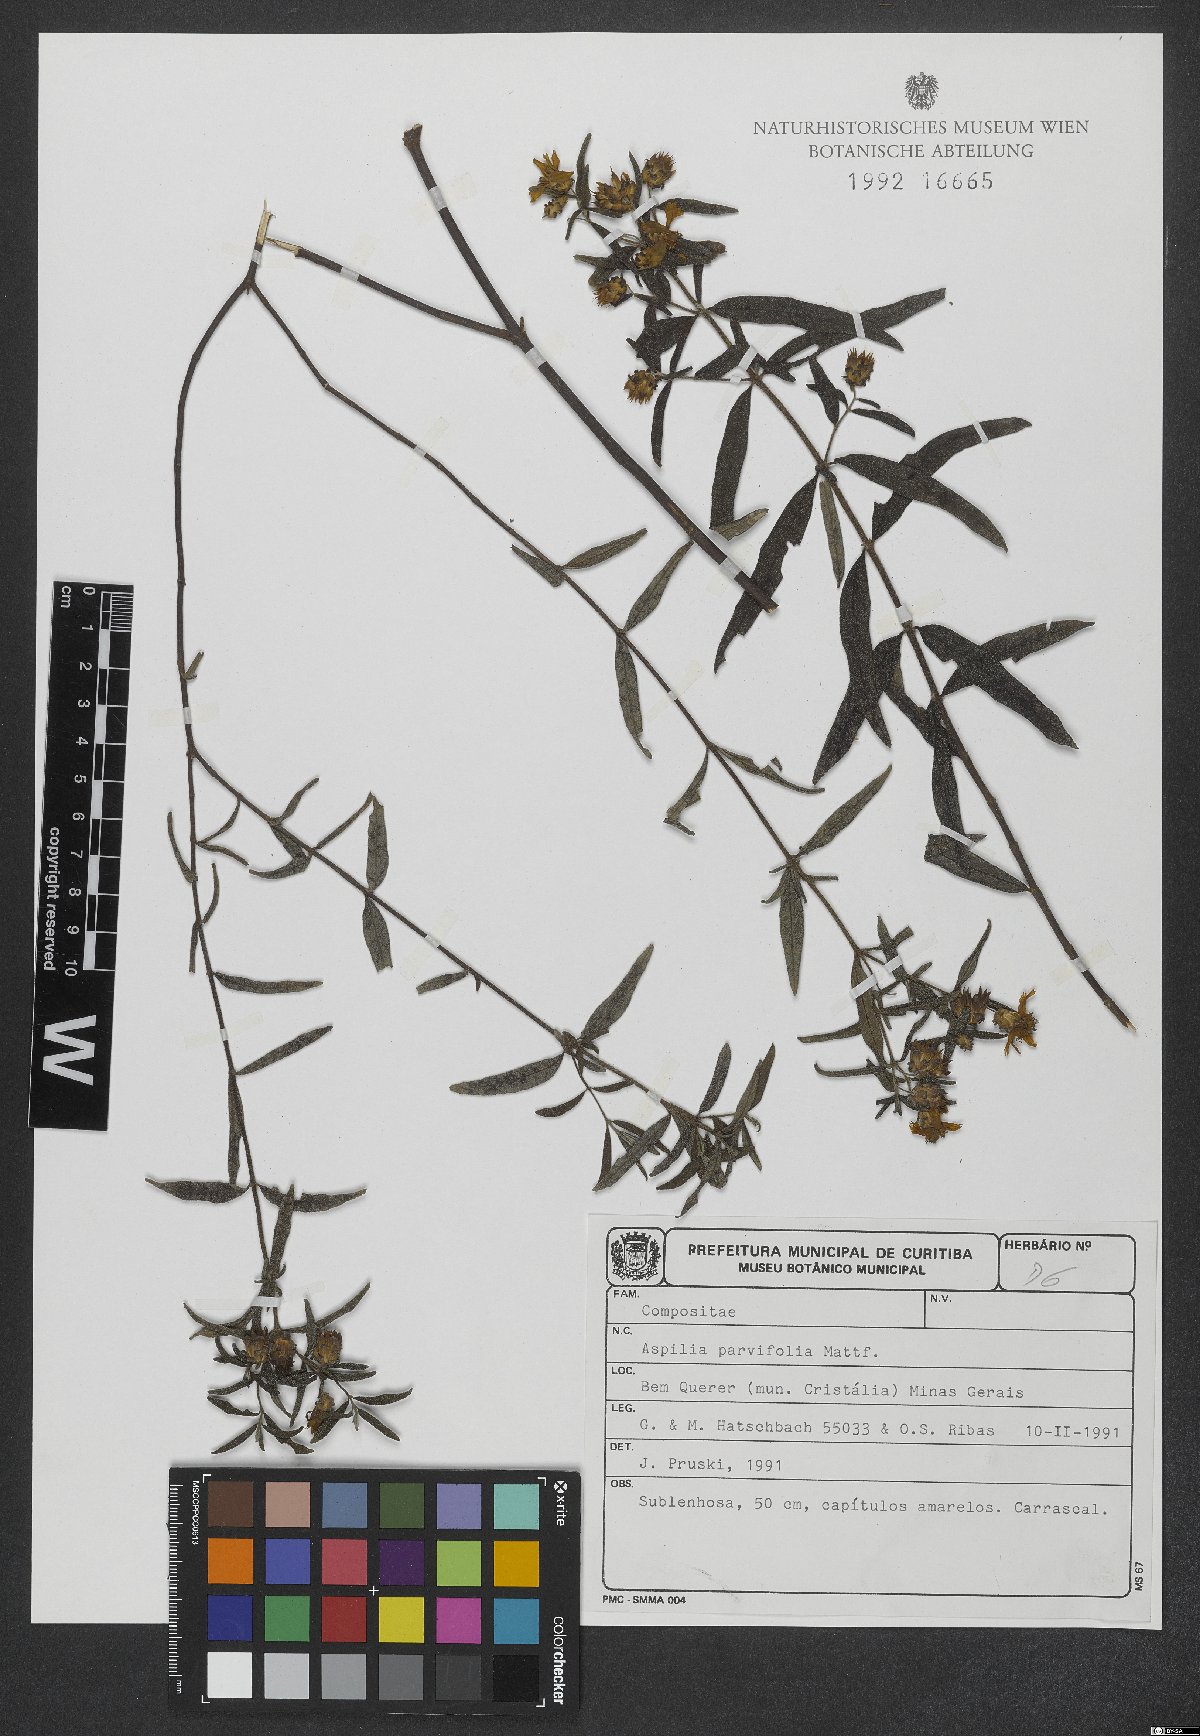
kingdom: Plantae
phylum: Tracheophyta
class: Magnoliopsida
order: Asterales
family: Asteraceae
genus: Aspilia
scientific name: Aspilia foliosa
